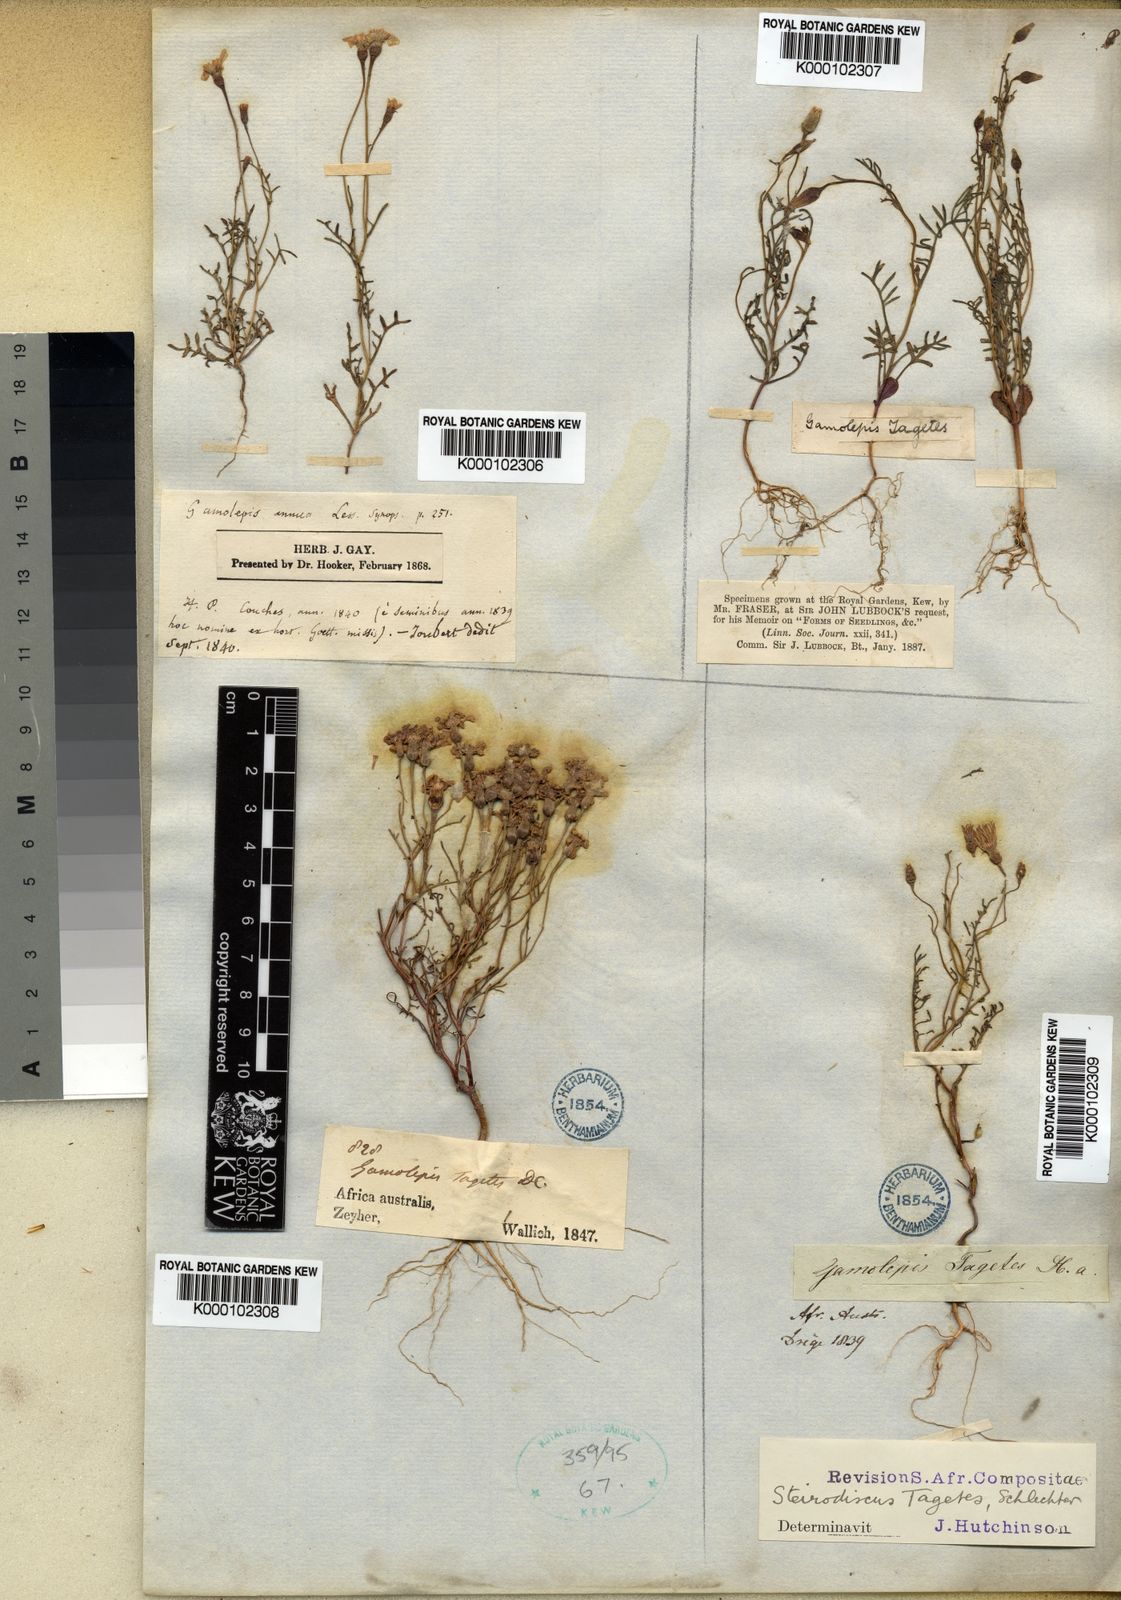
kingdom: Plantae
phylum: Tracheophyta
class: Magnoliopsida
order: Asterales
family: Asteraceae
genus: Steirodiscus
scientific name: Steirodiscus tagetes
